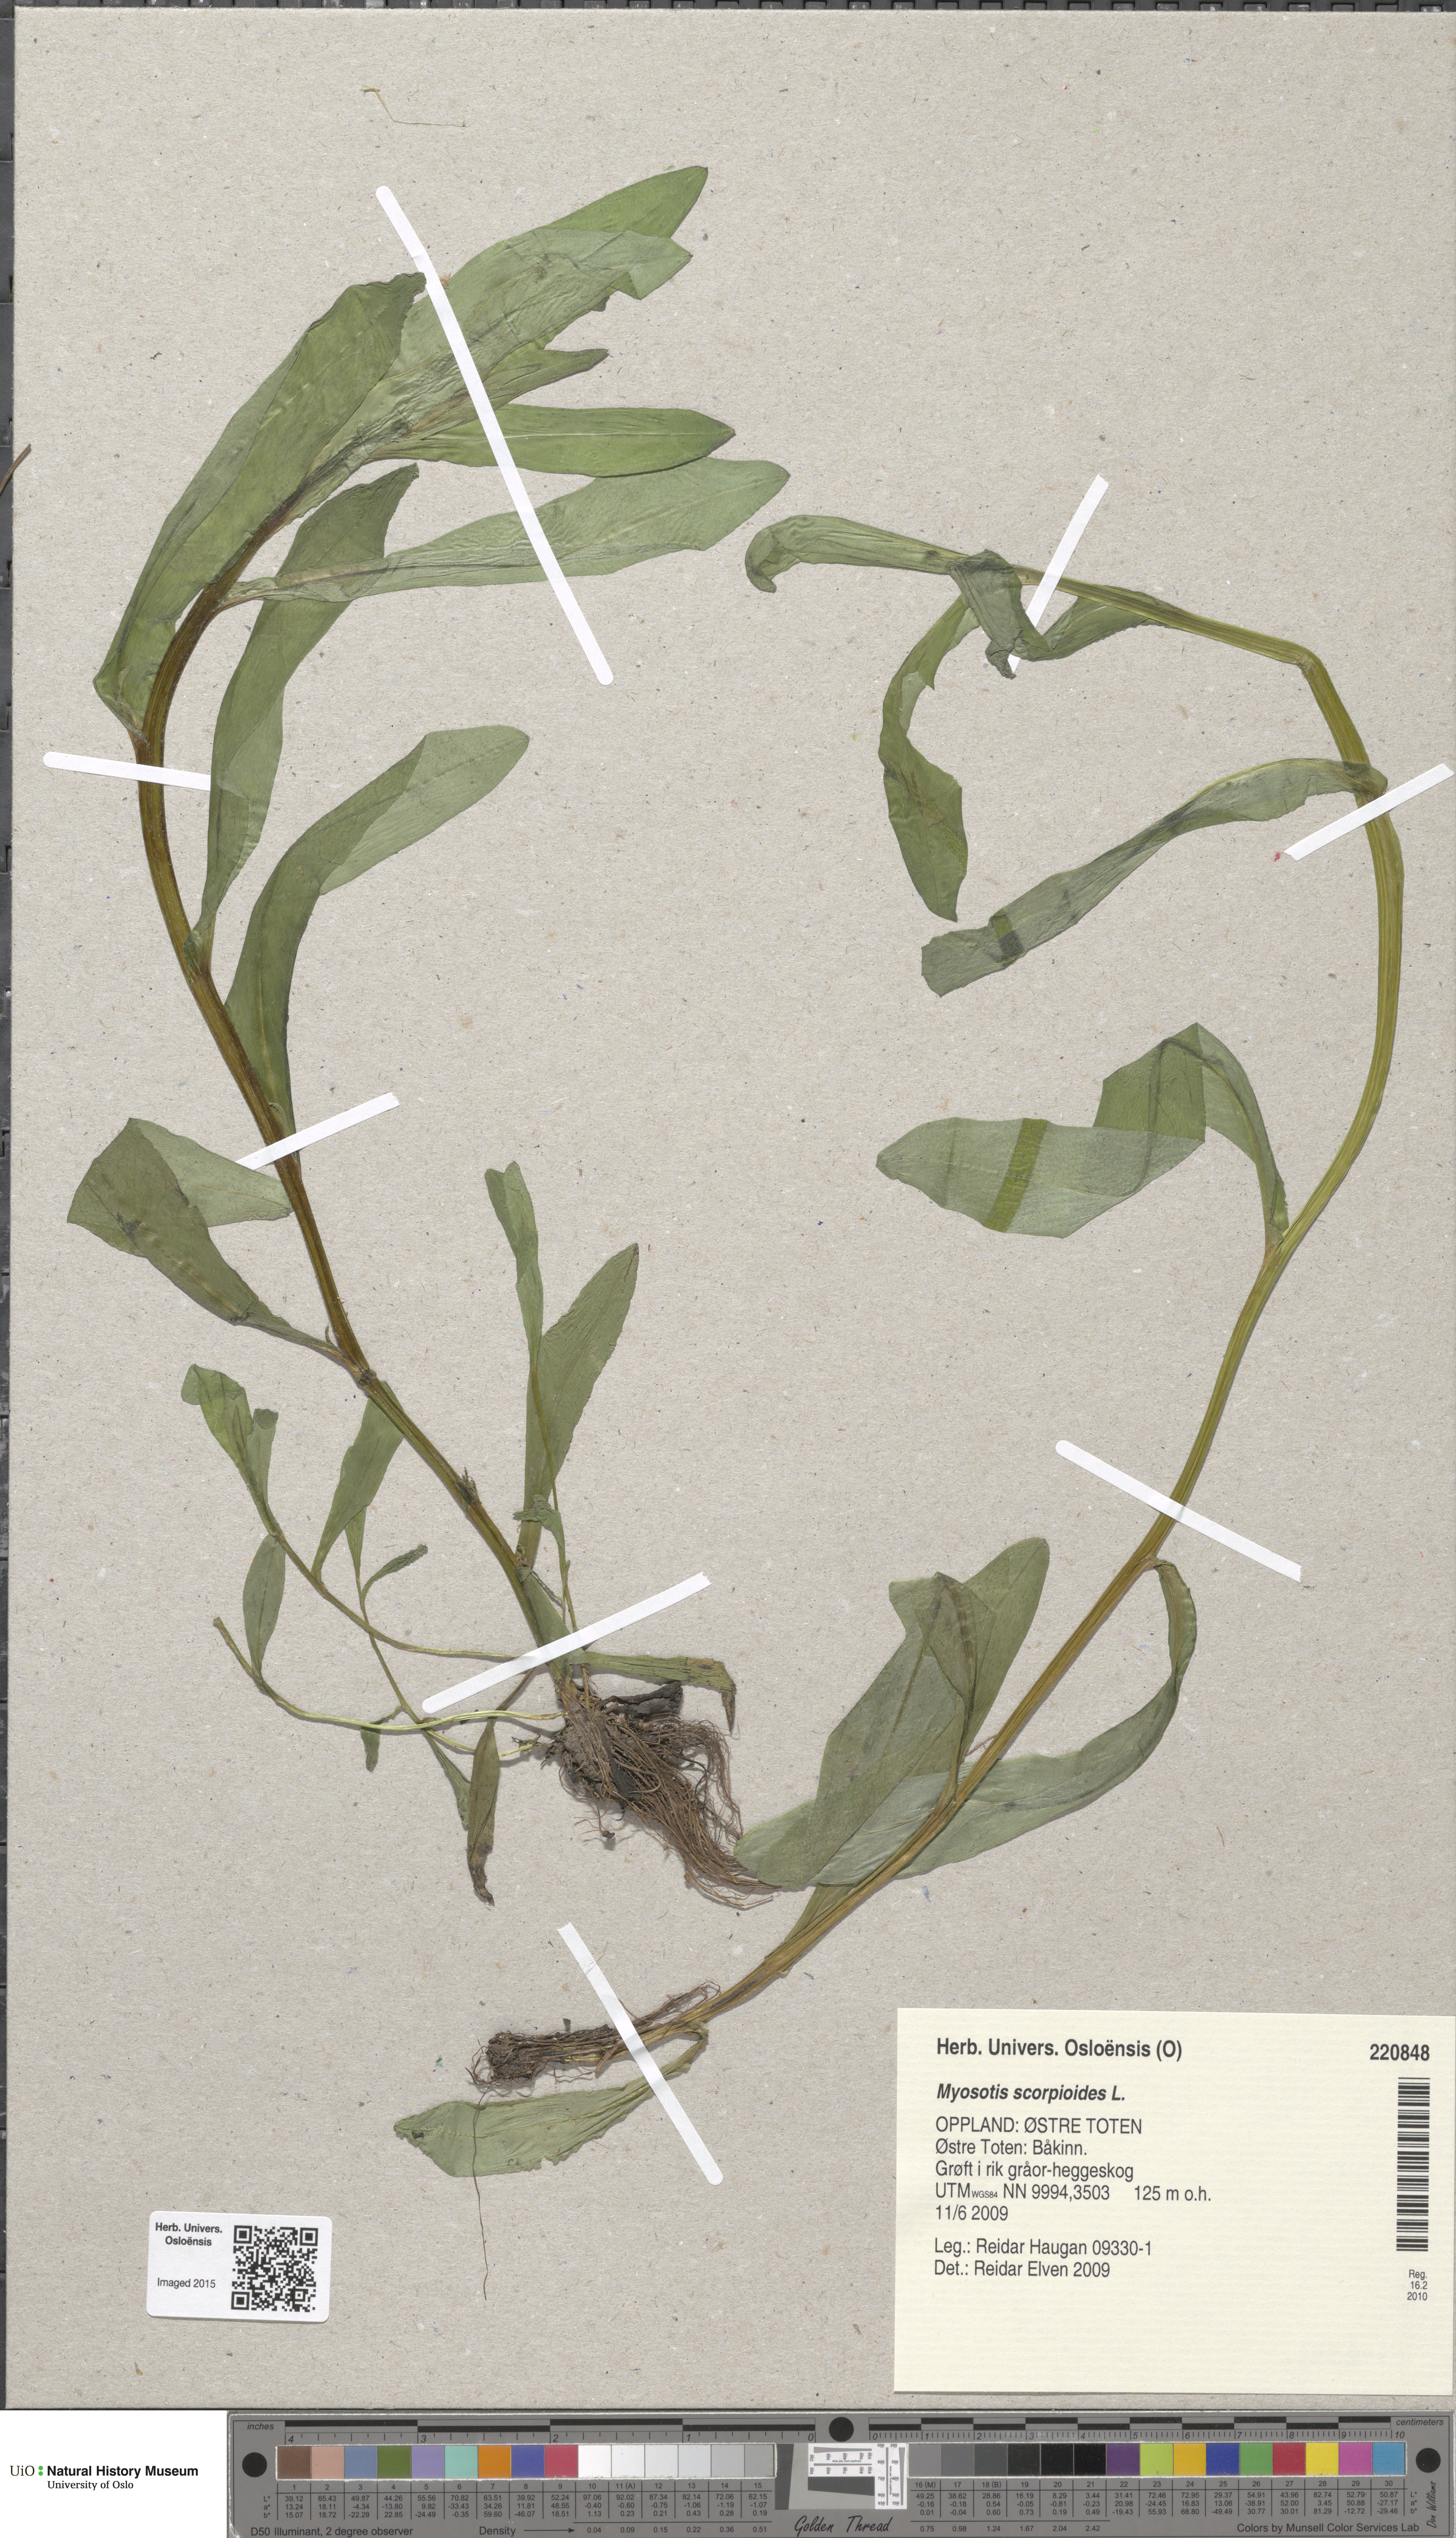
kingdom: Plantae
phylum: Tracheophyta
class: Magnoliopsida
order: Boraginales
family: Boraginaceae
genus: Myosotis
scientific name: Myosotis scorpioides
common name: Water forget-me-not
